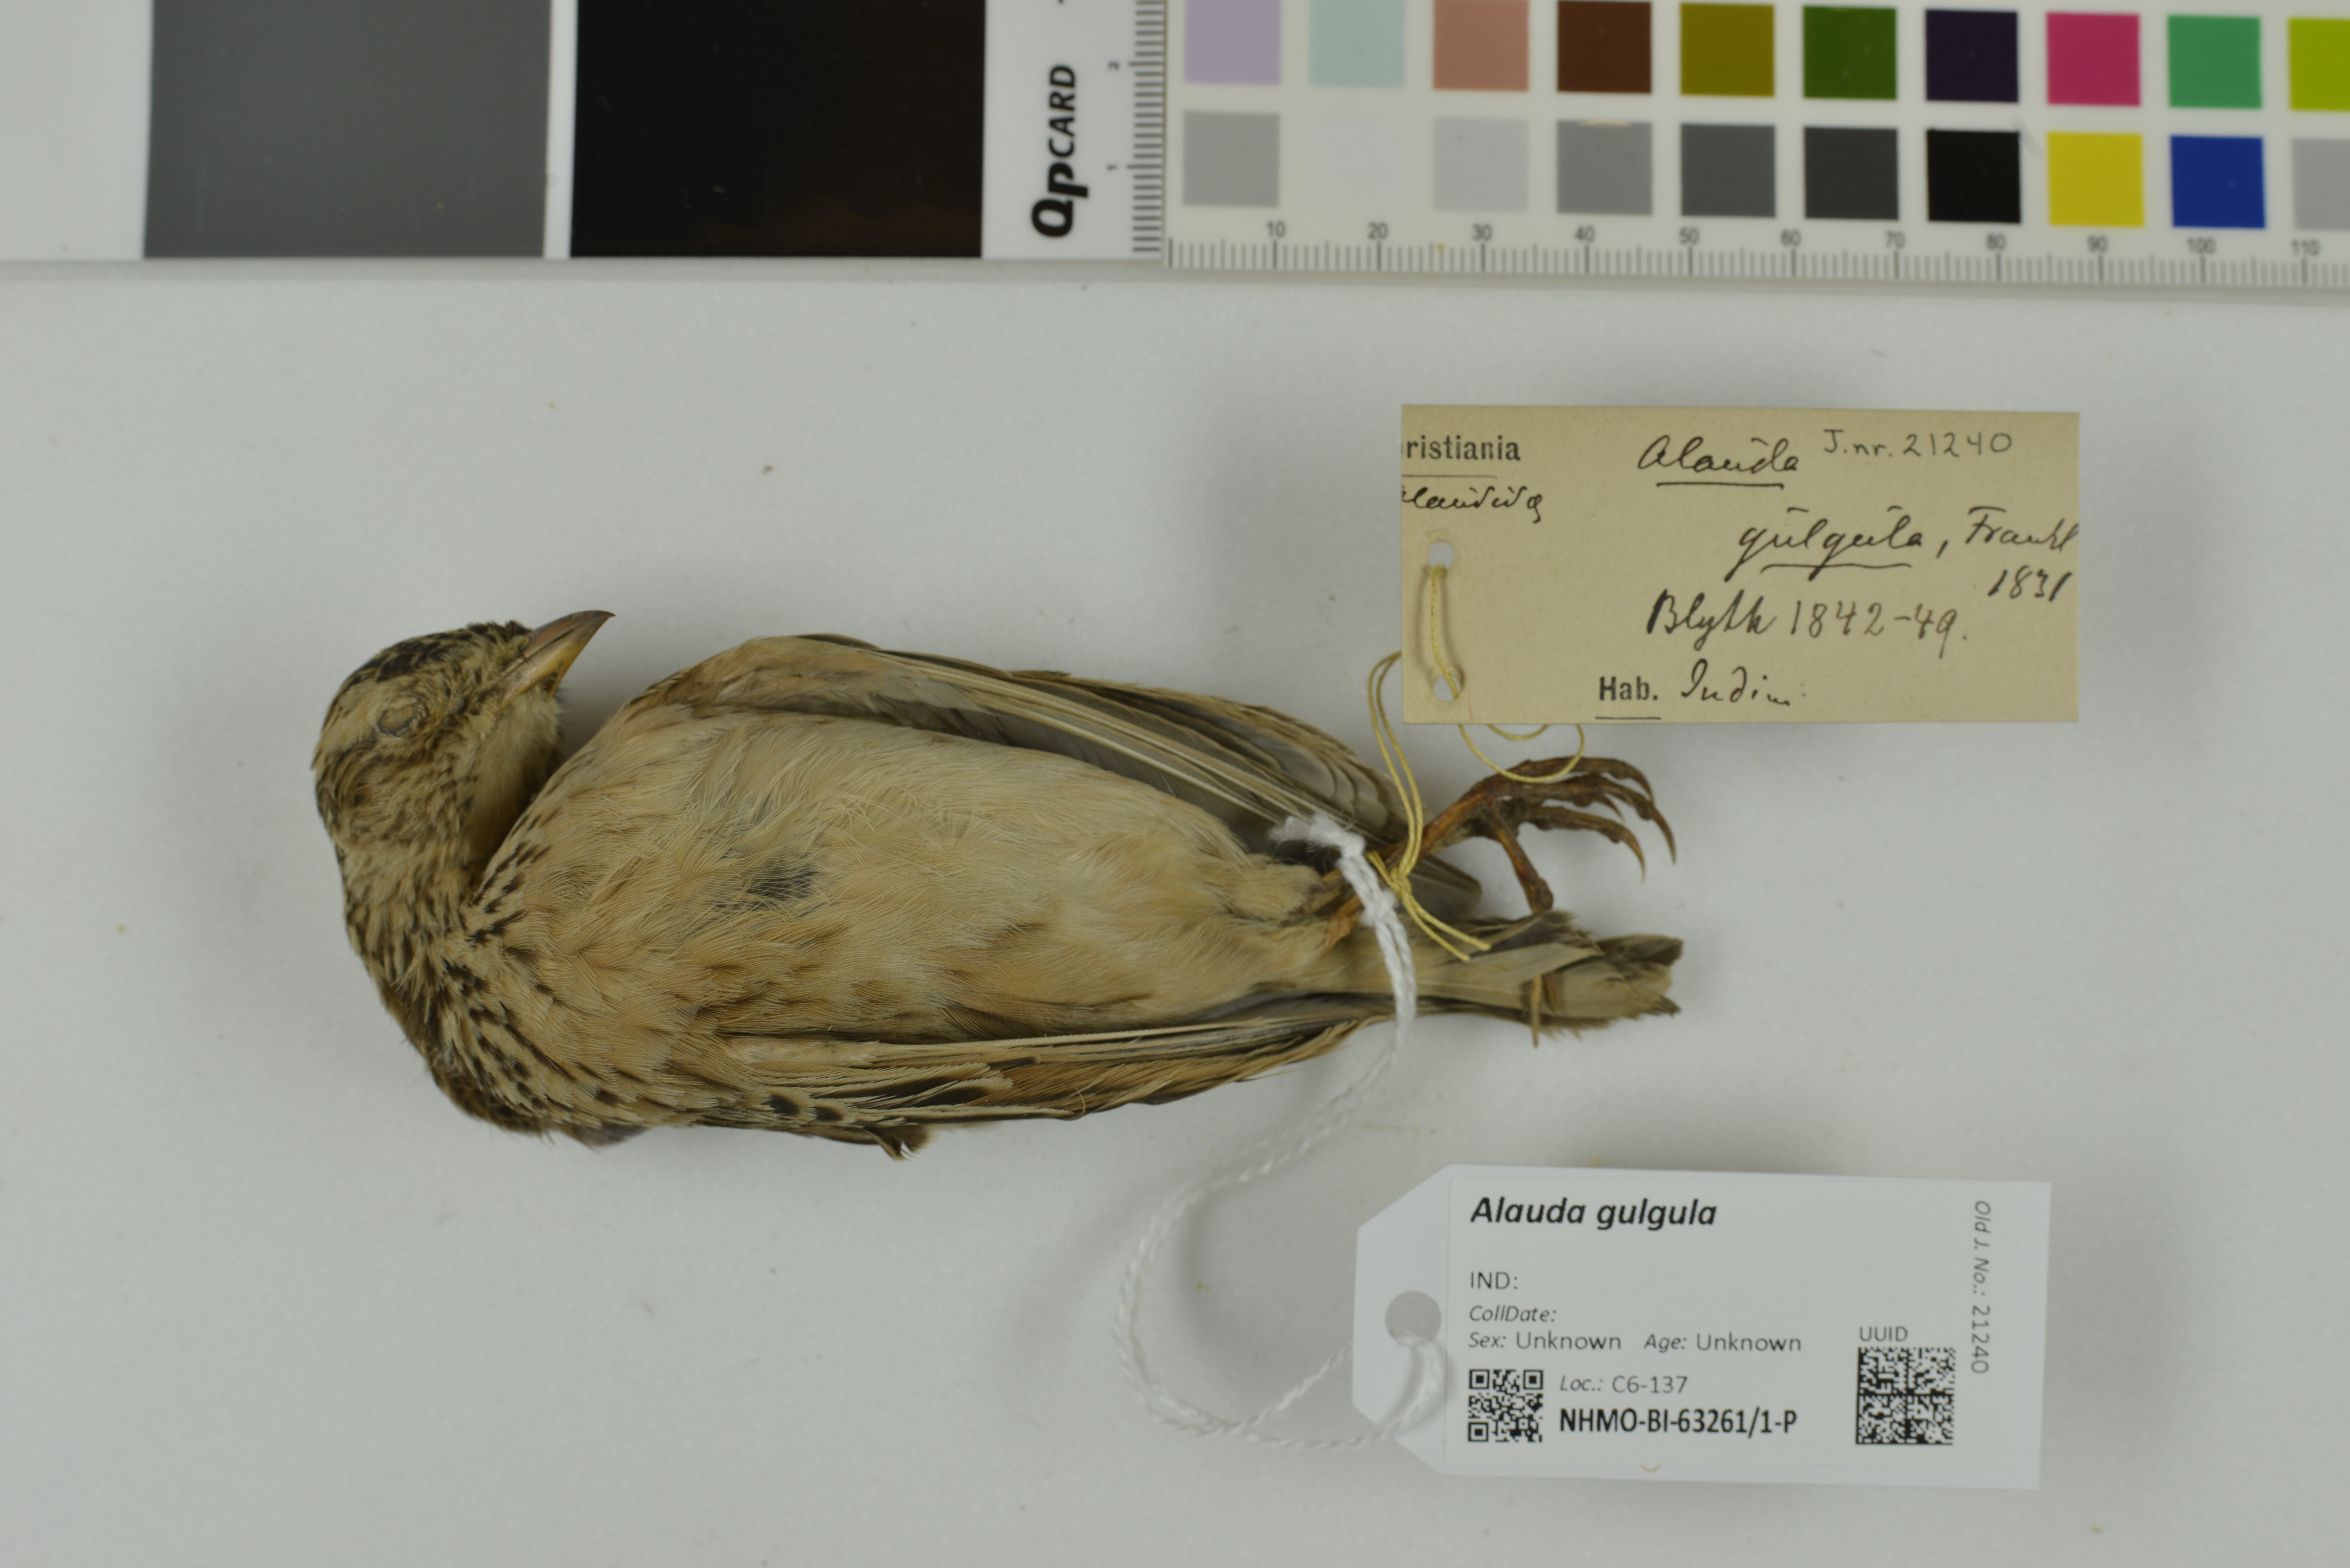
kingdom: Animalia
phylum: Chordata
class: Aves
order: Passeriformes
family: Alaudidae
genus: Alauda
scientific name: Alauda gulgula
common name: Oriental skylark
